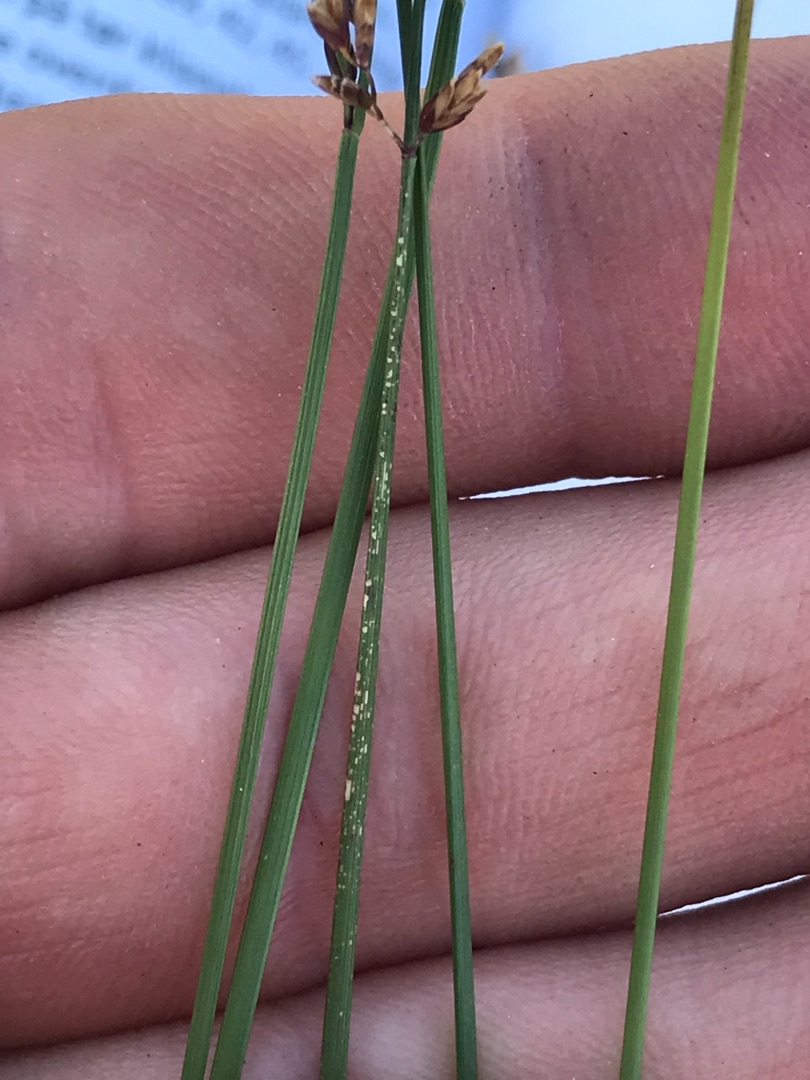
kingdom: Plantae
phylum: Tracheophyta
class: Liliopsida
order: Poales
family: Poaceae
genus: Poa
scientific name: Poa compressa
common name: Fladstrået rapgræs
